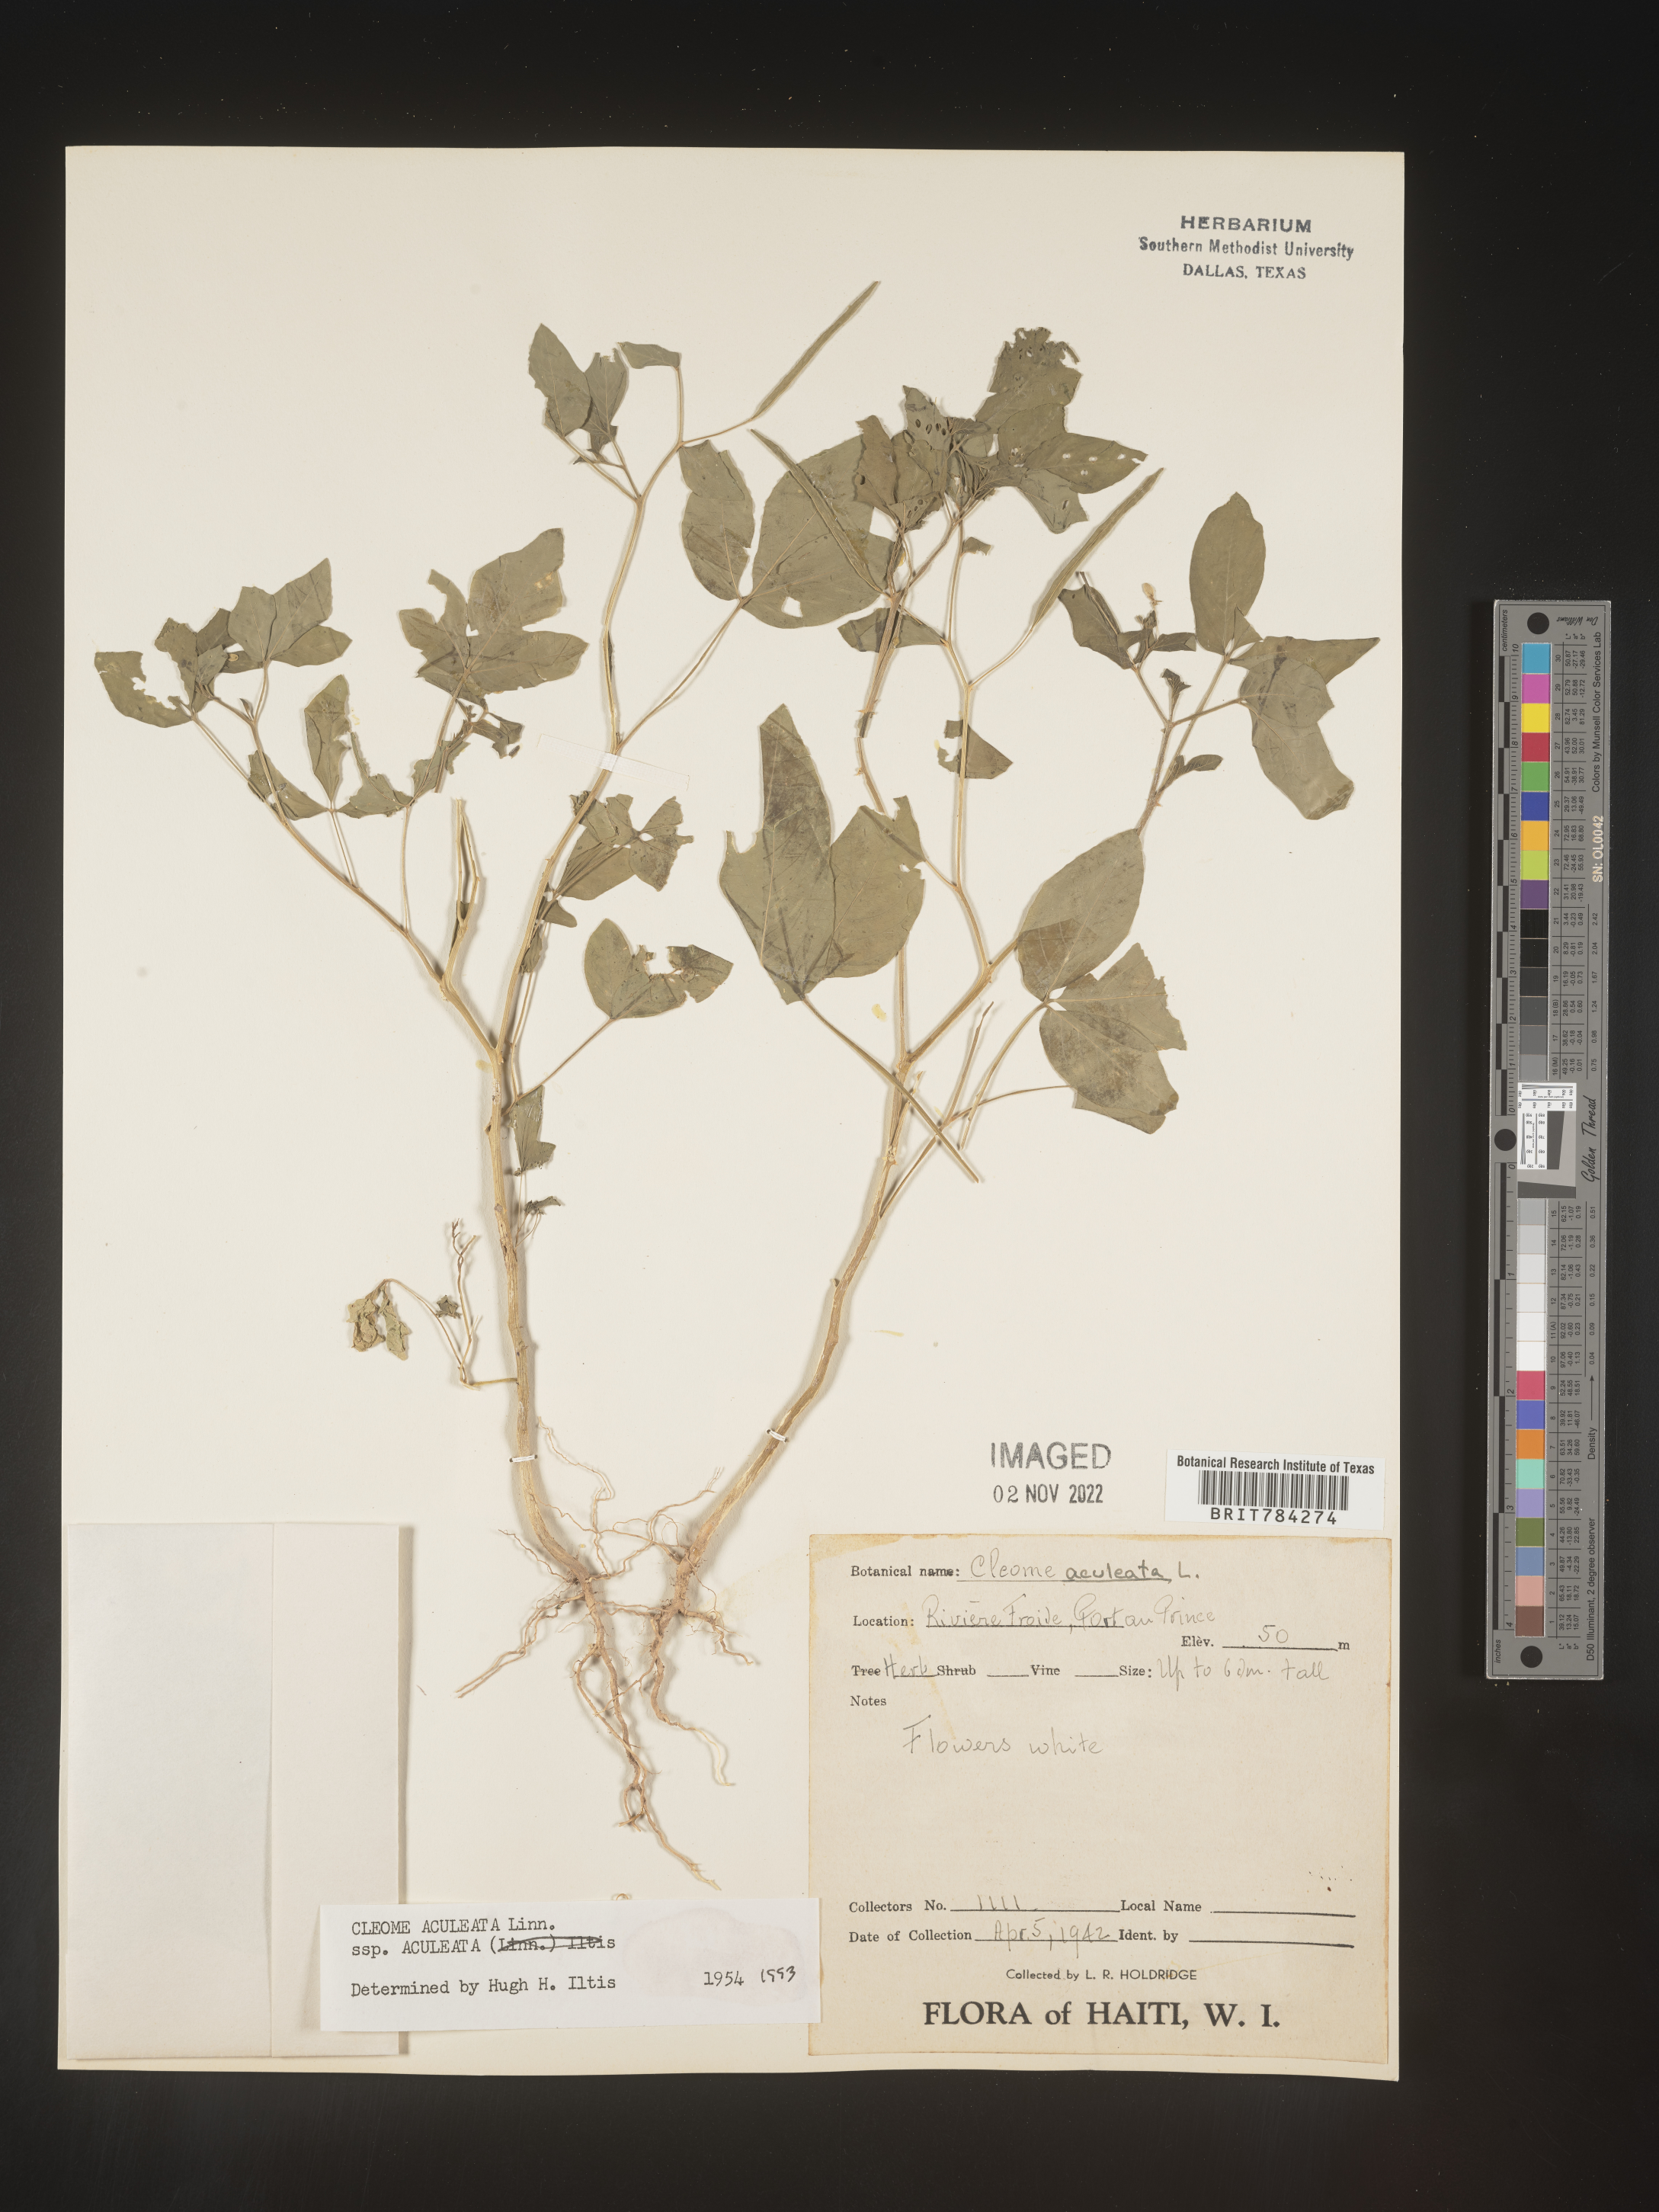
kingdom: Plantae
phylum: Tracheophyta
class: Magnoliopsida
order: Brassicales
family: Cleomaceae
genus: Cleome
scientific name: Cleome
